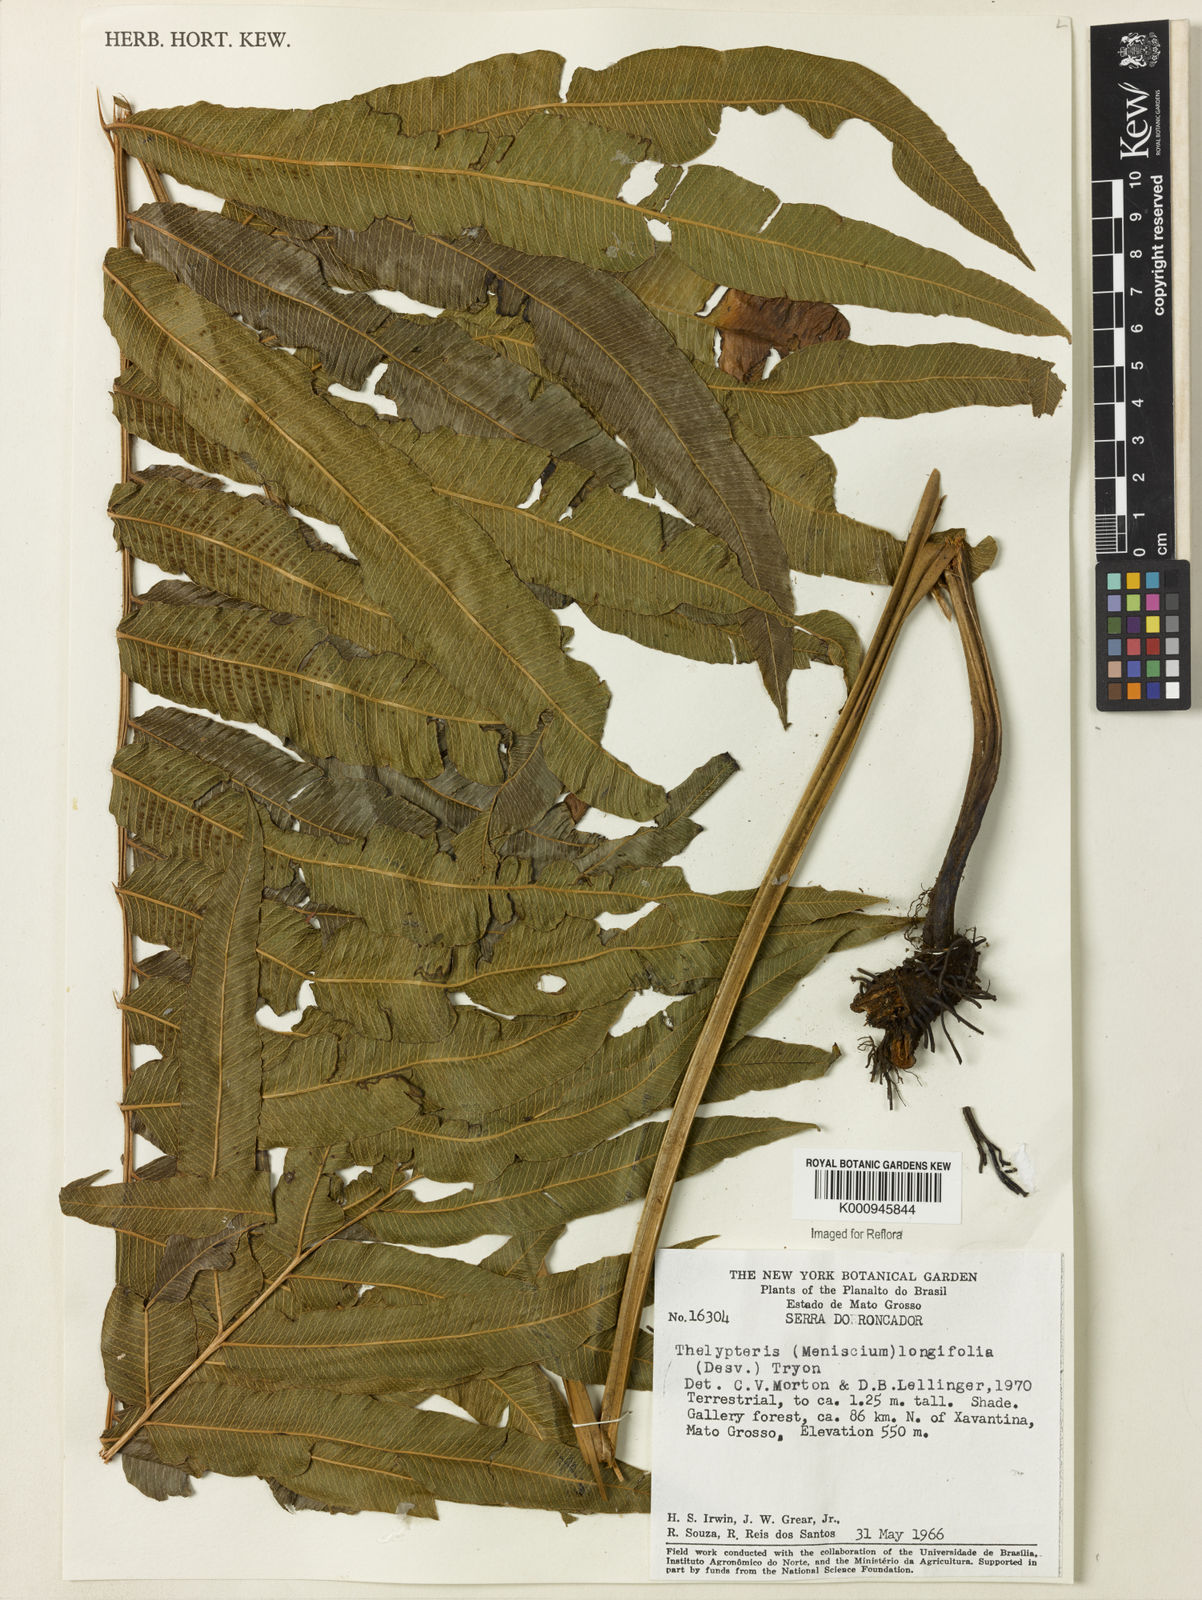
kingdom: Plantae
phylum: Tracheophyta
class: Polypodiopsida
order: Polypodiales
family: Thelypteridaceae
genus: Meniscium
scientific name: Meniscium longifolium
